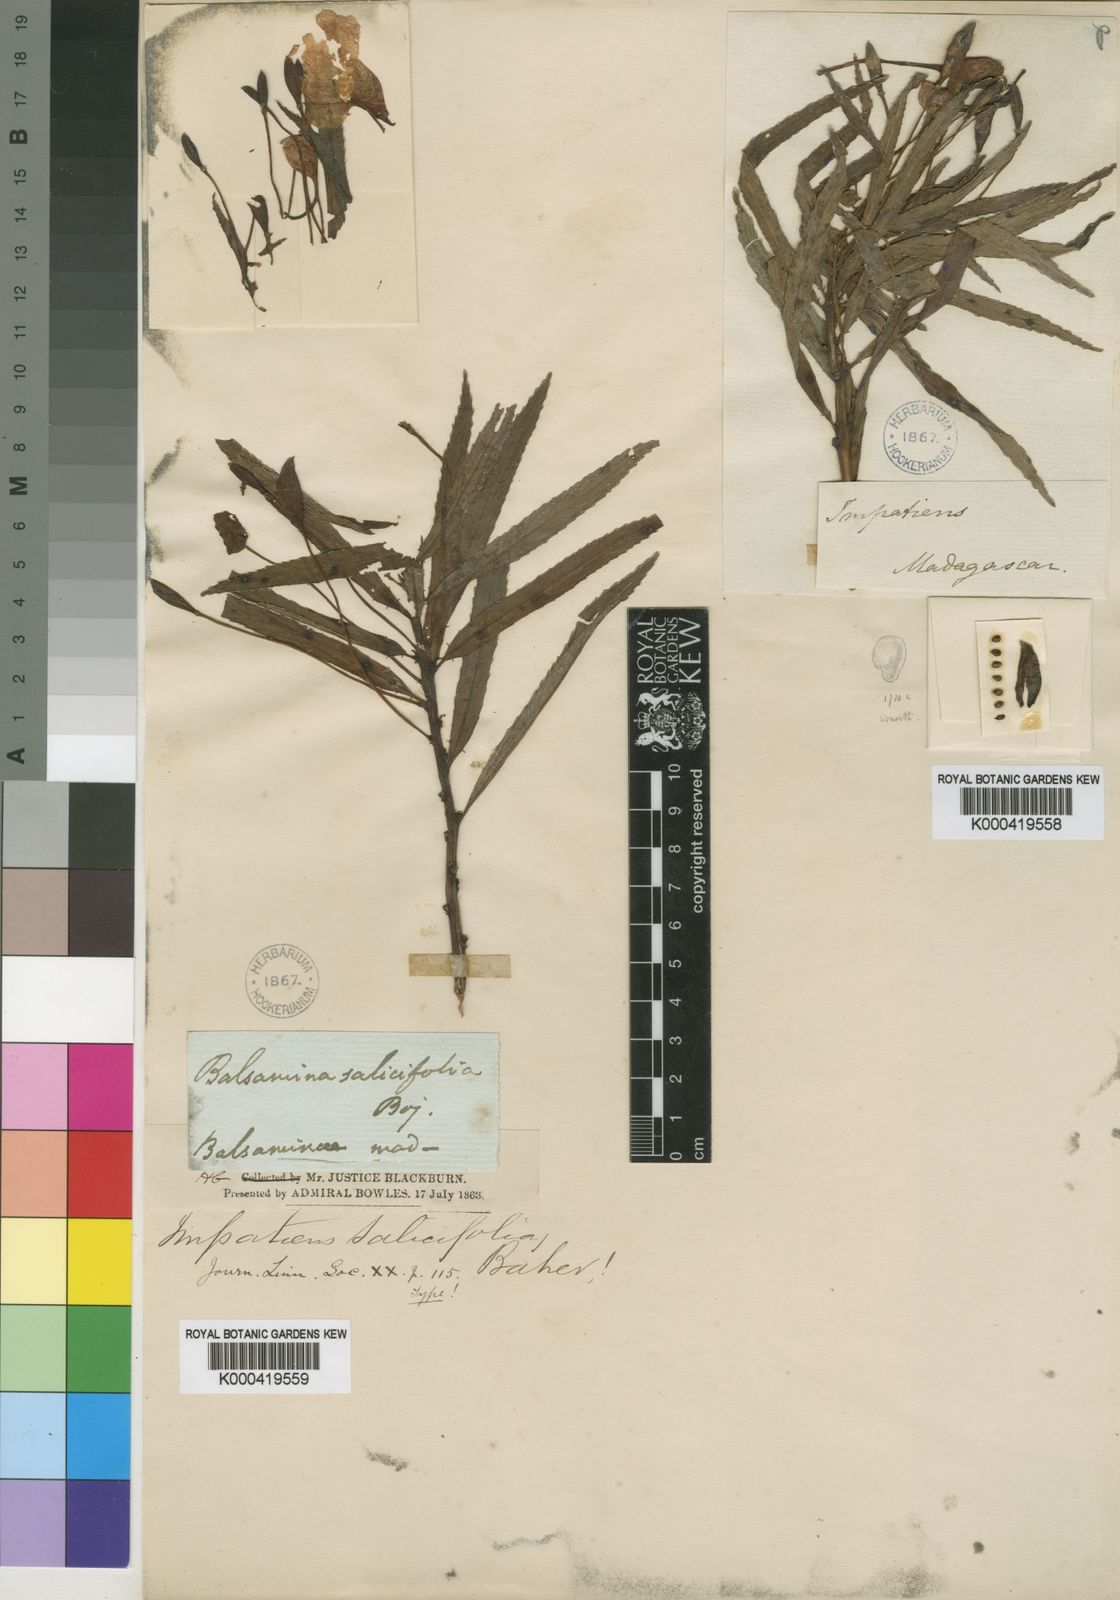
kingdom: Plantae
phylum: Tracheophyta
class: Magnoliopsida
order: Ericales
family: Balsaminaceae
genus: Impatiens
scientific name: Impatiens rutenbergii
